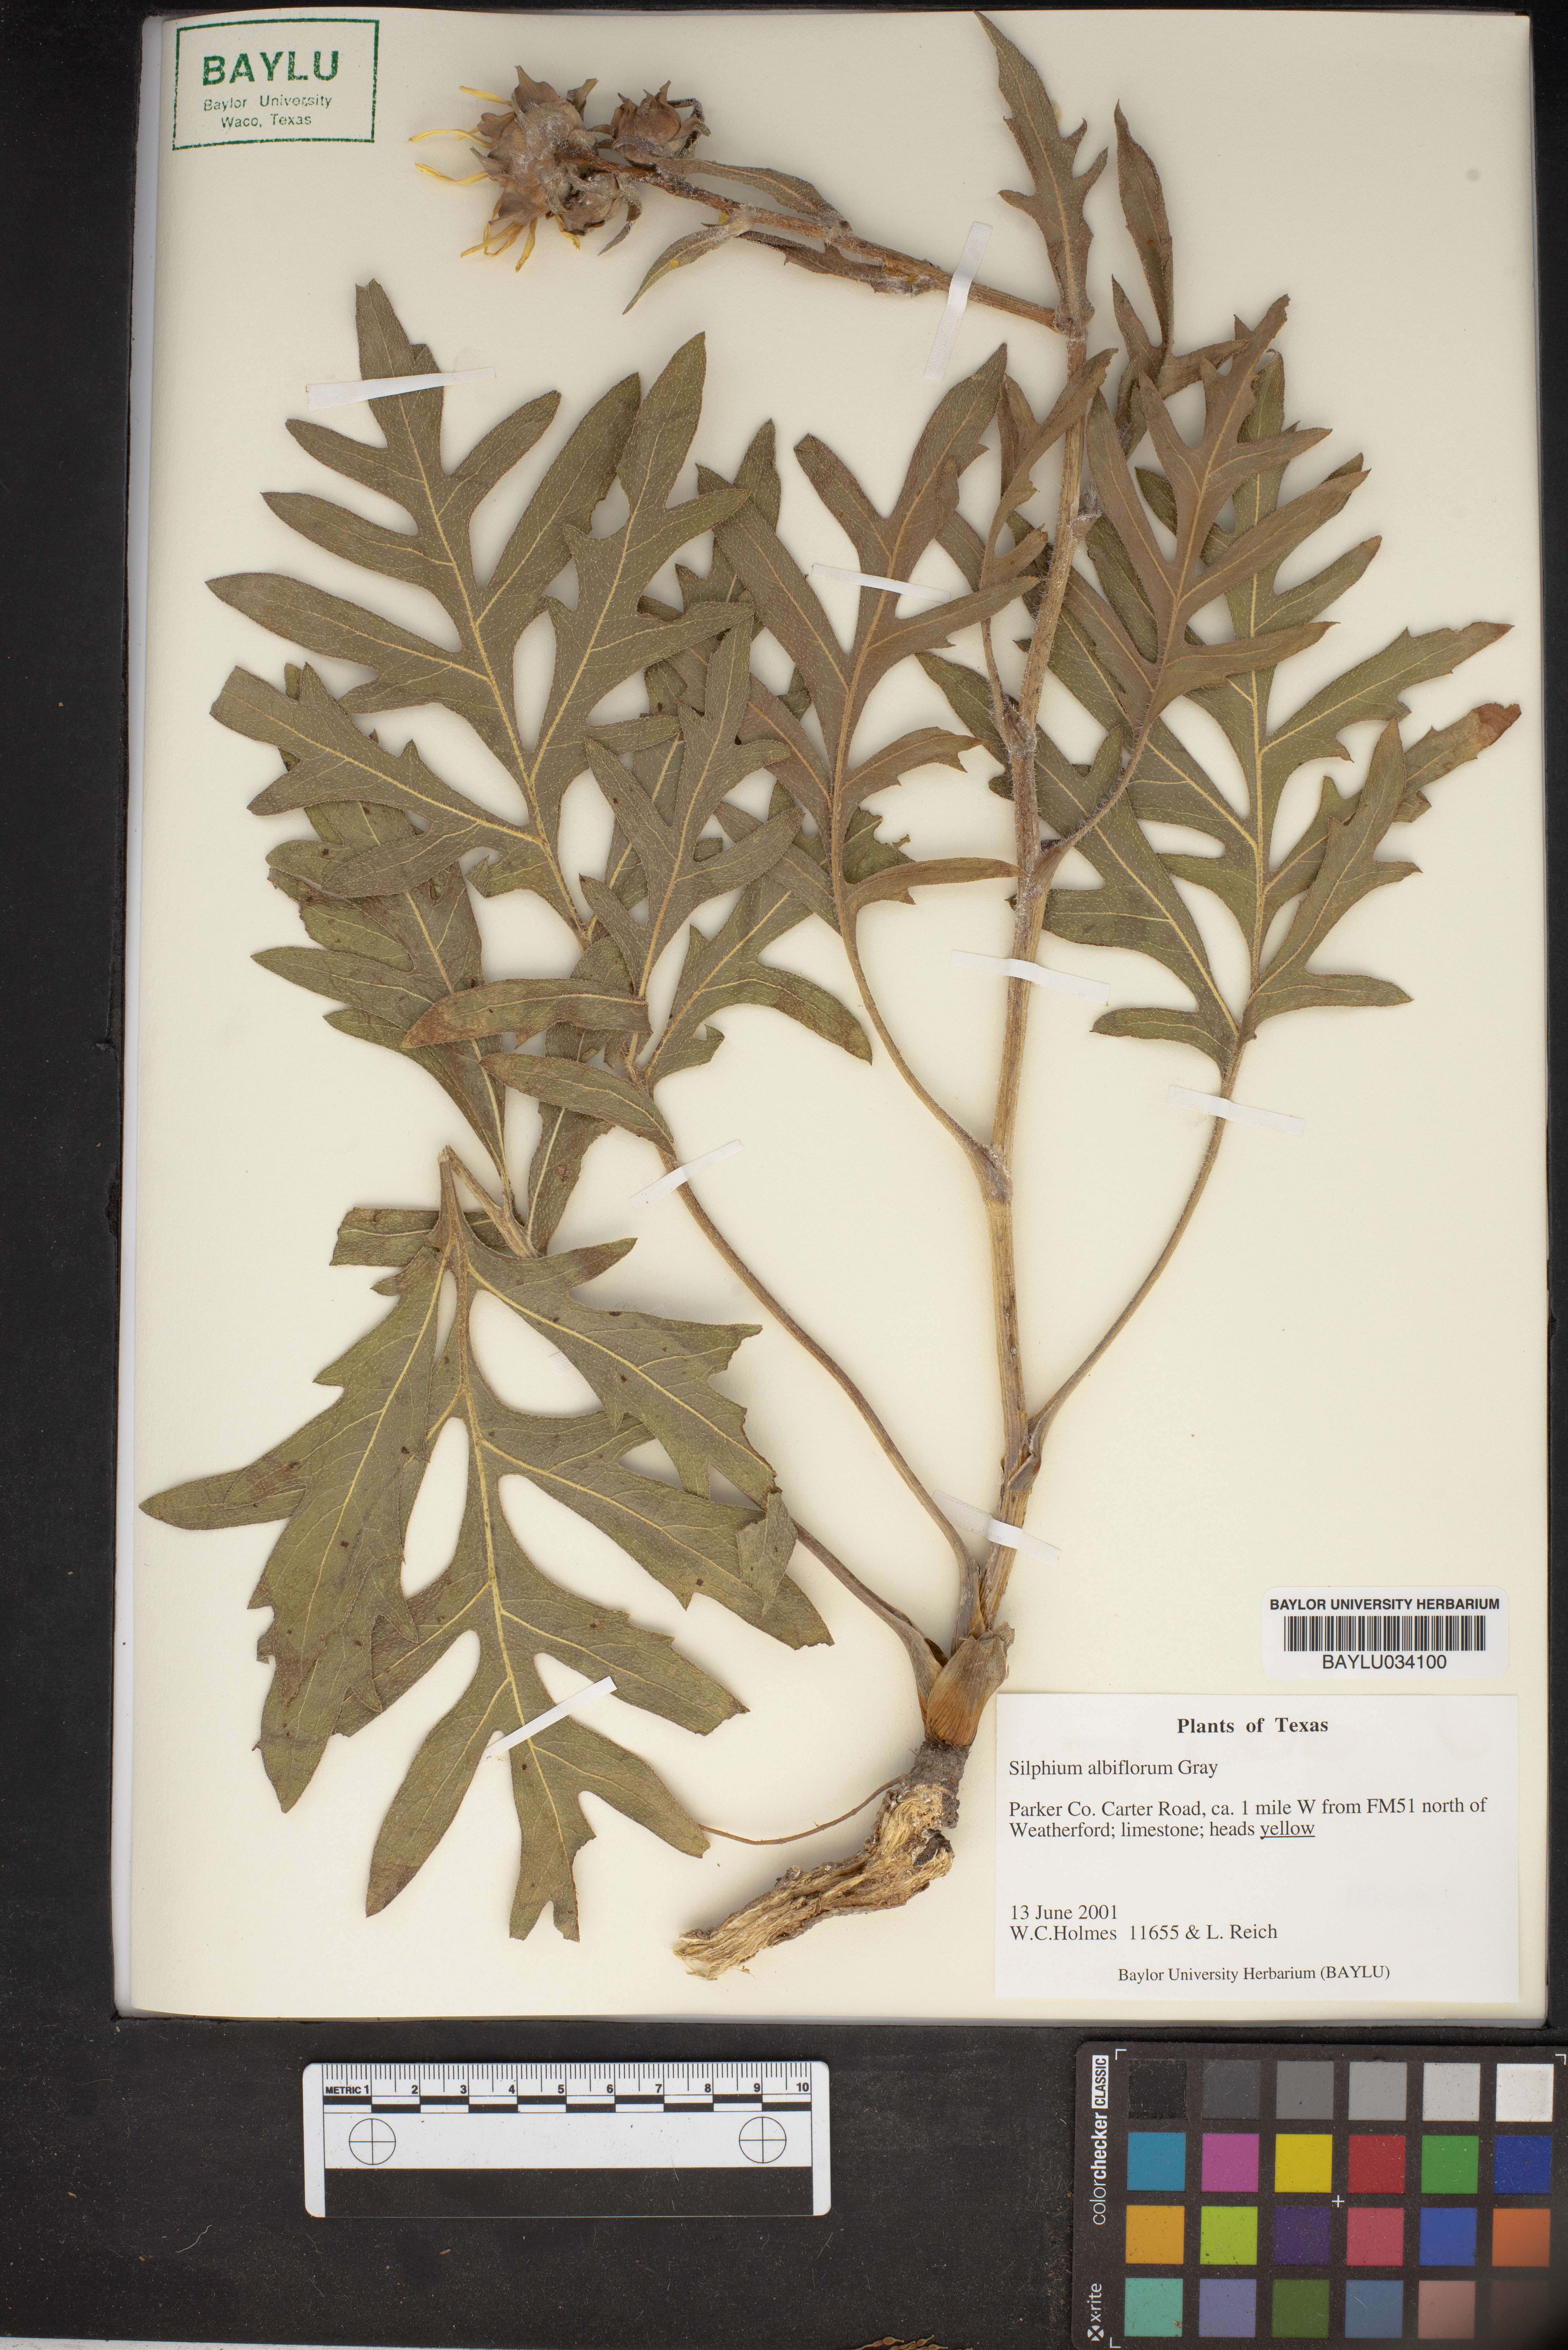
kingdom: Plantae
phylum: Tracheophyta
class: Magnoliopsida
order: Asterales
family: Asteraceae
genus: Silphium
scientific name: Silphium albiflorum
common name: White rosinweed
